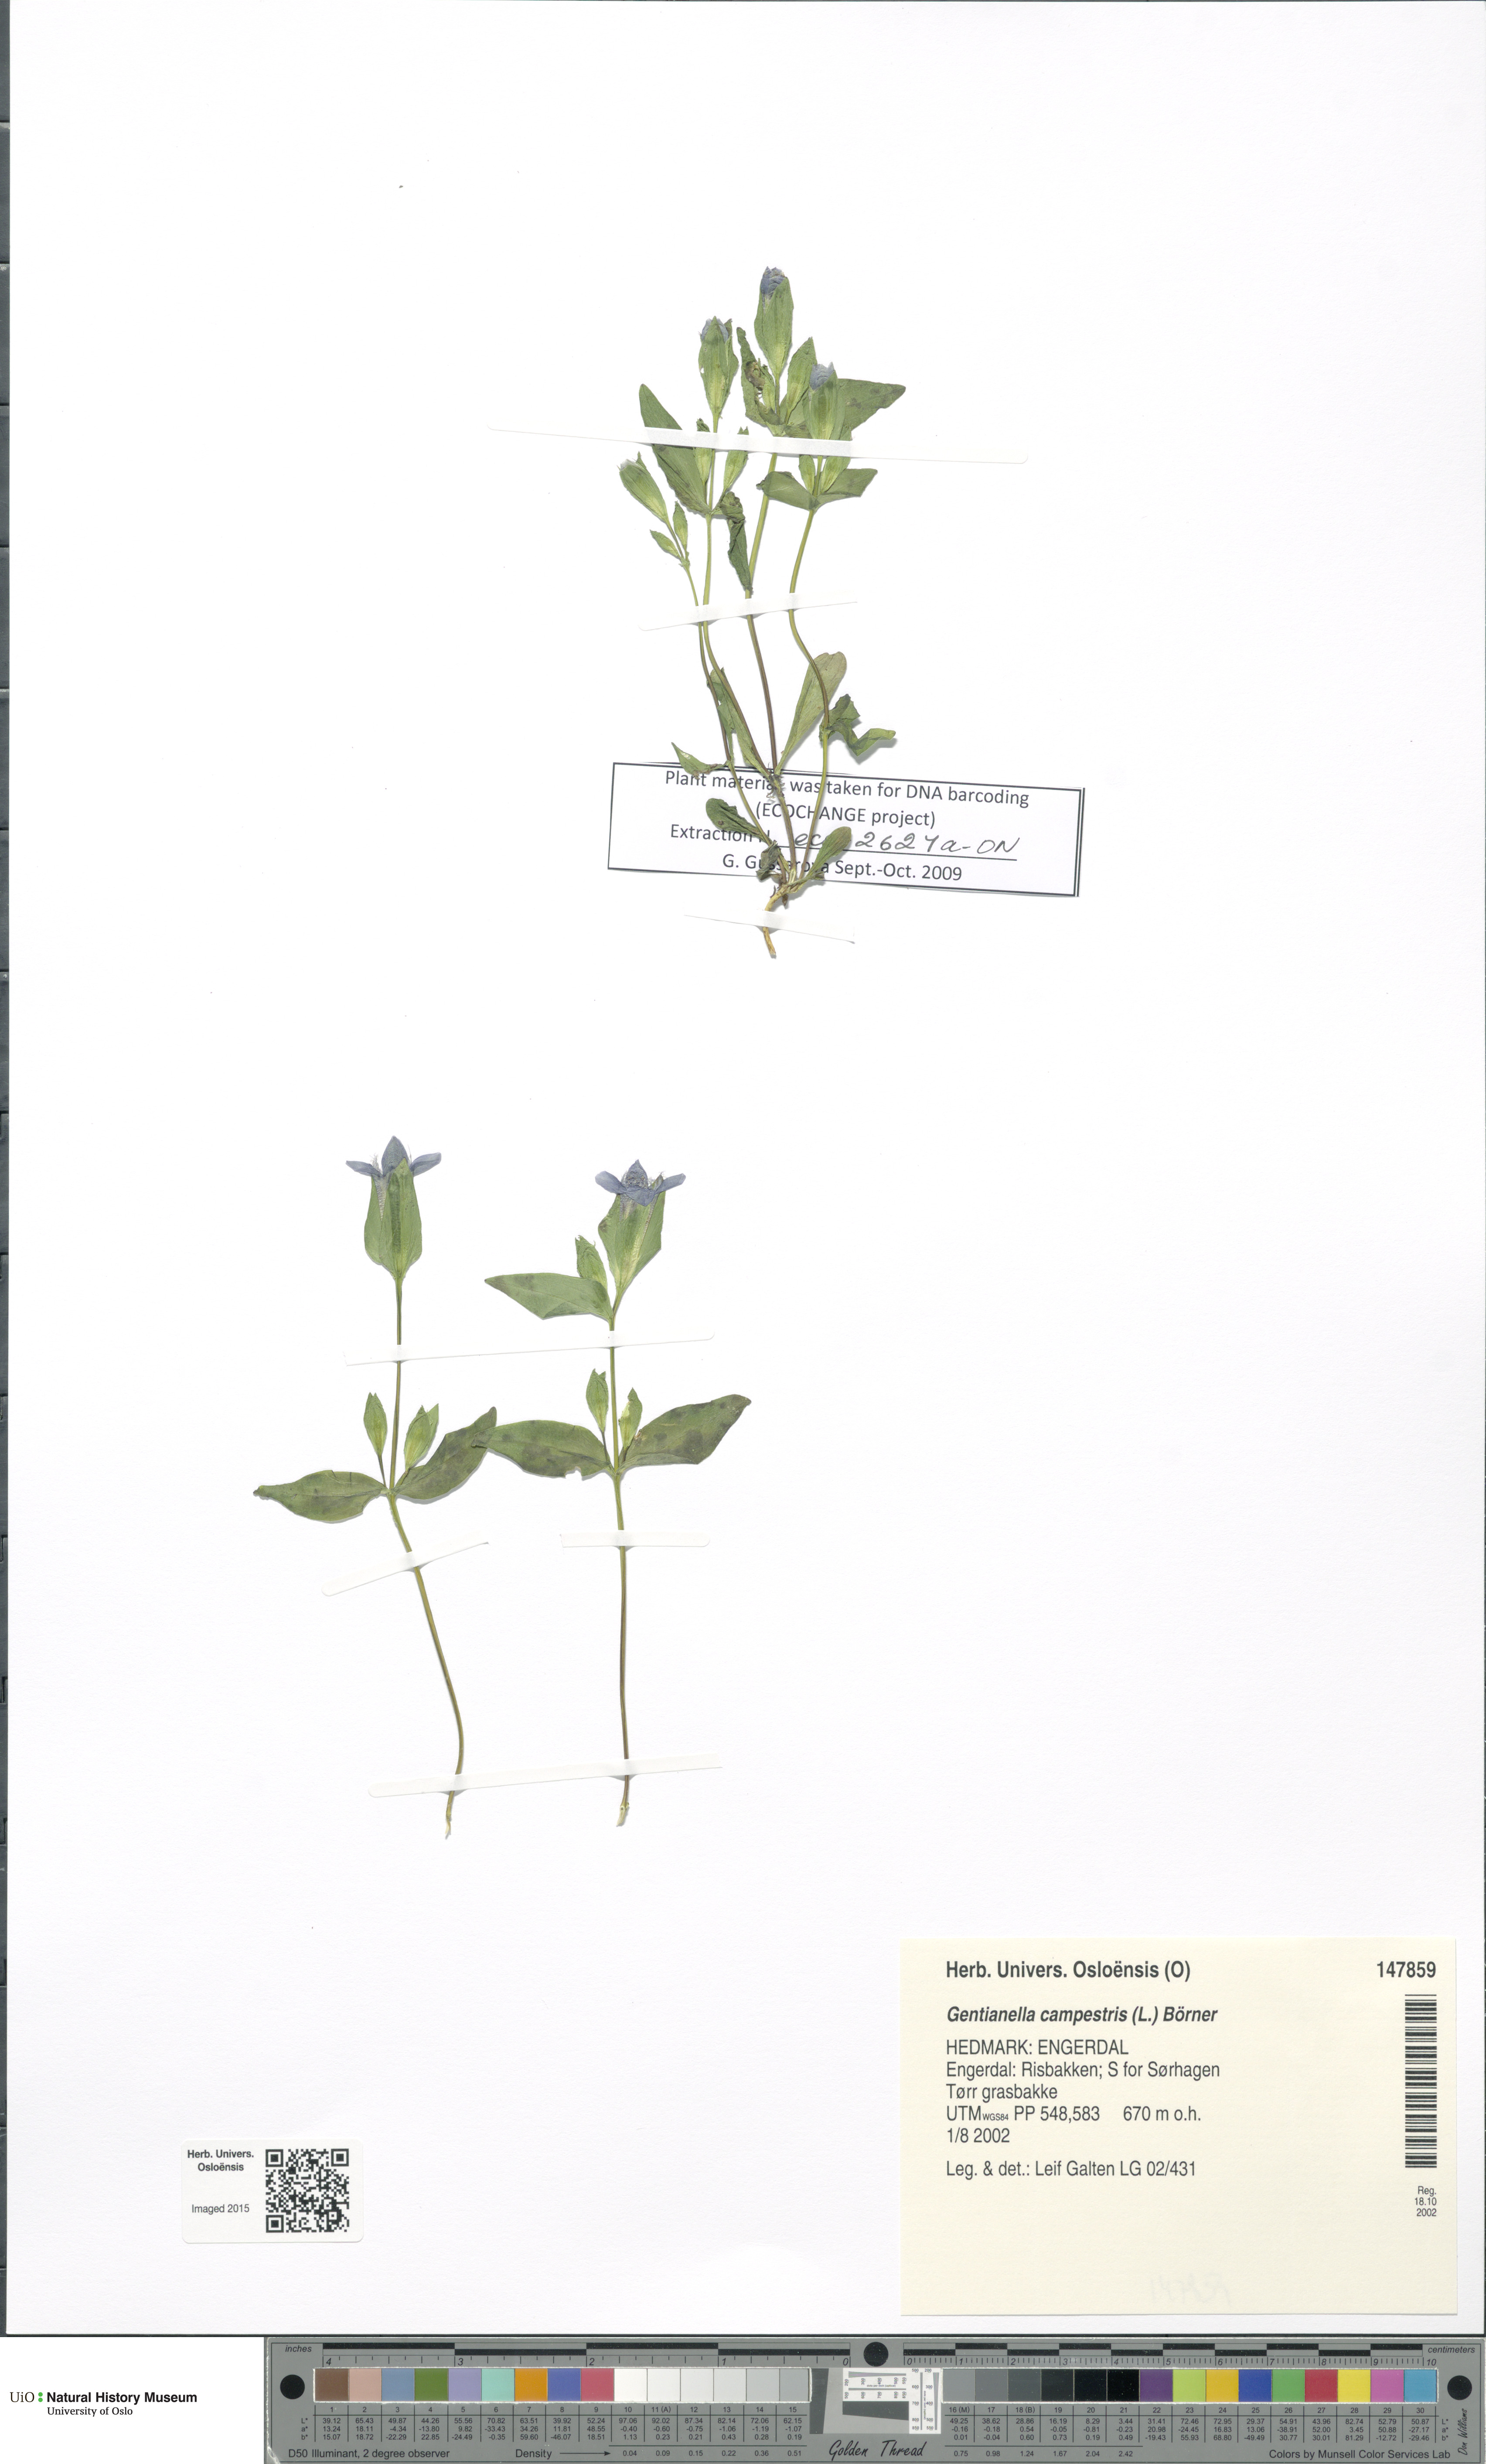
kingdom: Plantae
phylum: Tracheophyta
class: Magnoliopsida
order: Gentianales
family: Gentianaceae
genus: Gentianella
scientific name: Gentianella campestris
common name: Field gentian
